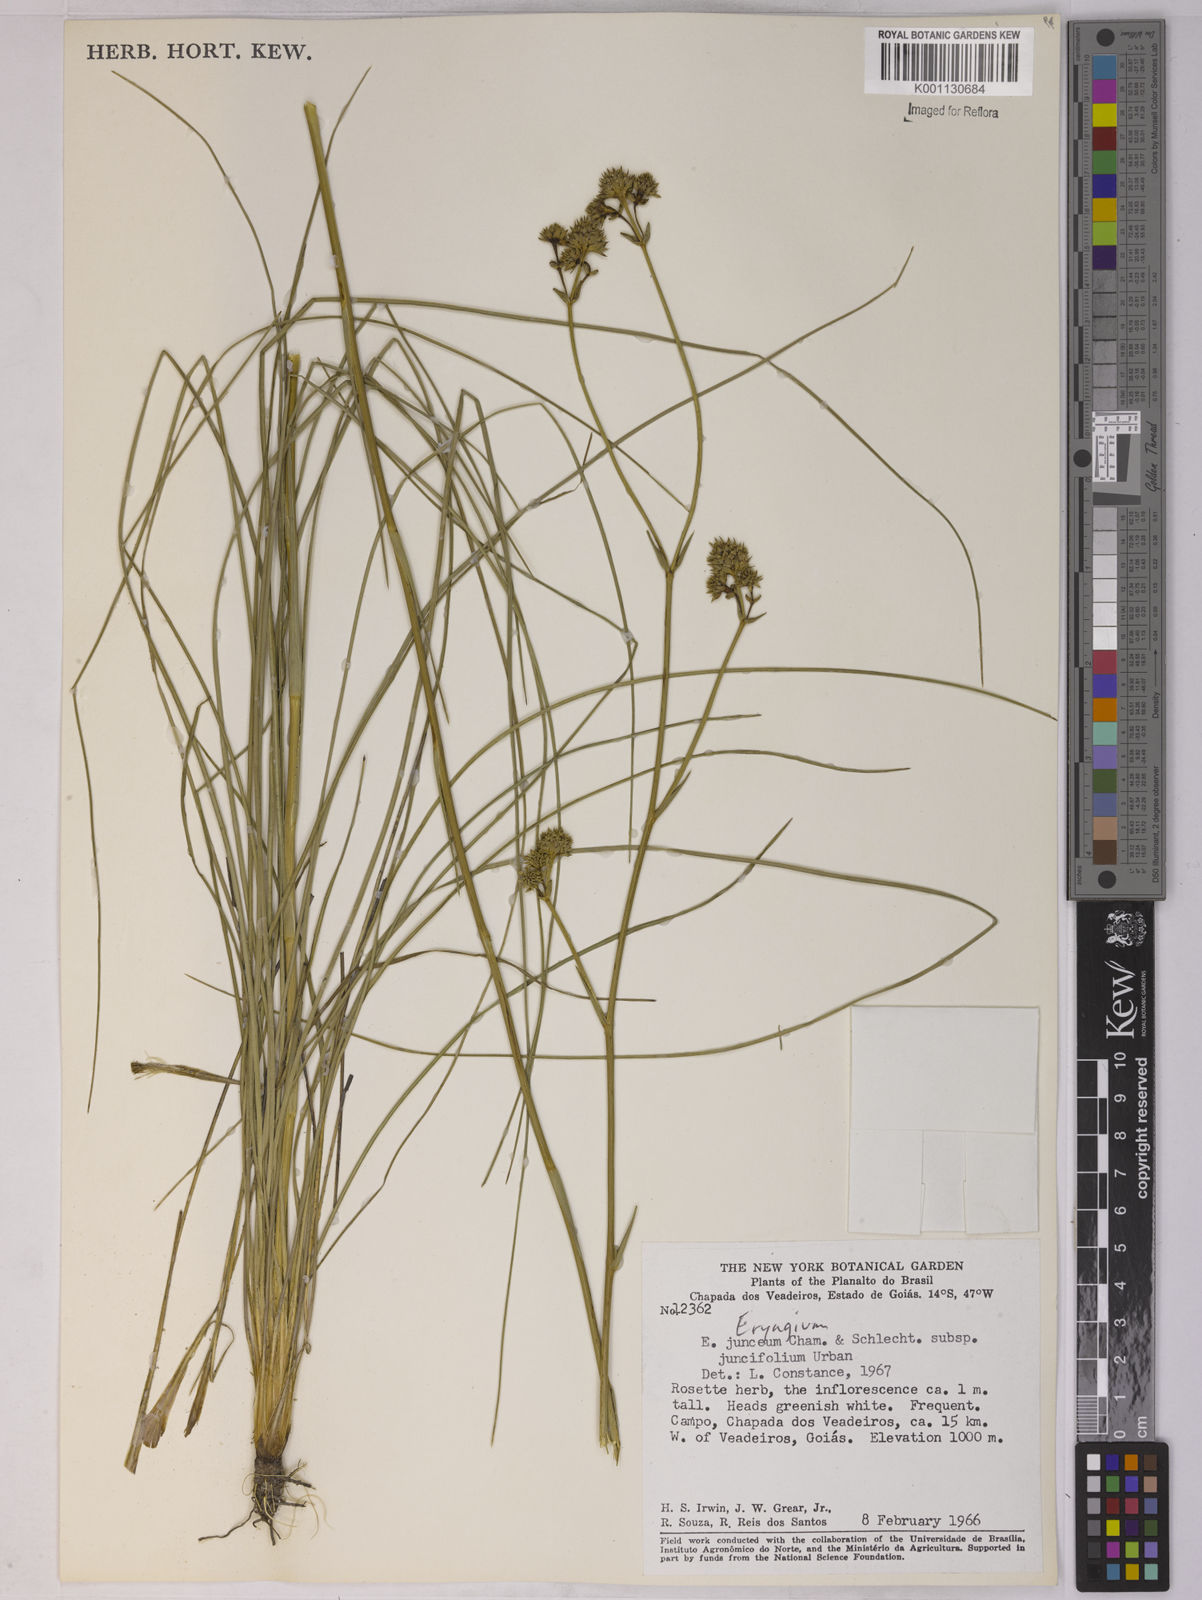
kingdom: Plantae
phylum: Tracheophyta
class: Magnoliopsida
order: Apiales
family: Apiaceae
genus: Eryngium
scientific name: Eryngium juncifolium
